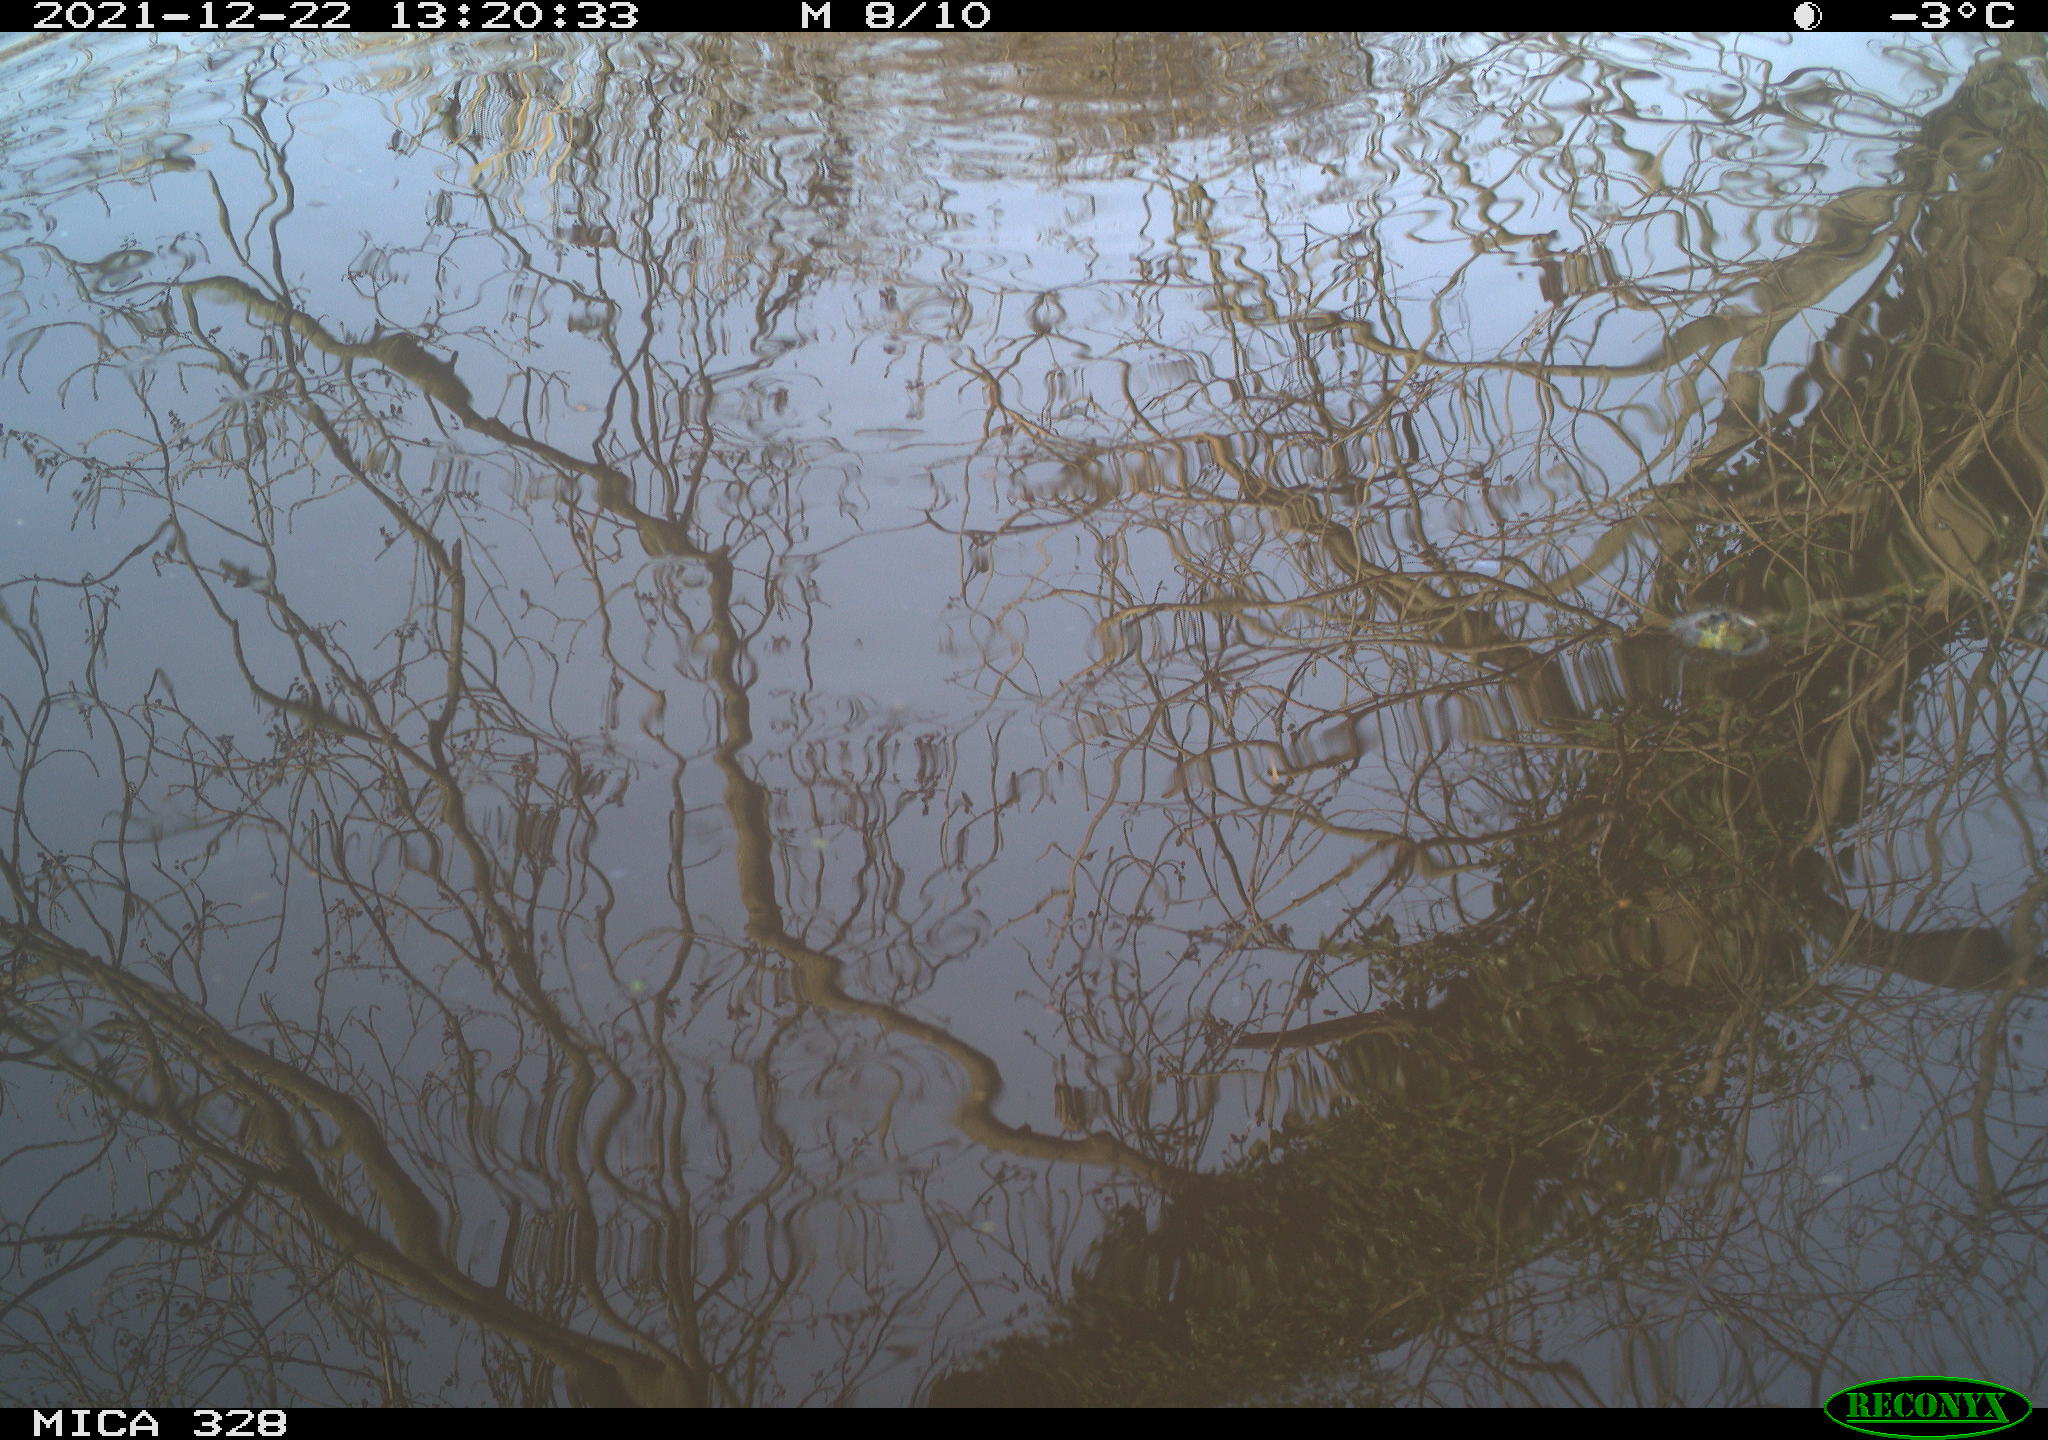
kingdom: Animalia
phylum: Chordata
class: Aves
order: Gruiformes
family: Rallidae
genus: Gallinula
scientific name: Gallinula chloropus
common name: Common moorhen
